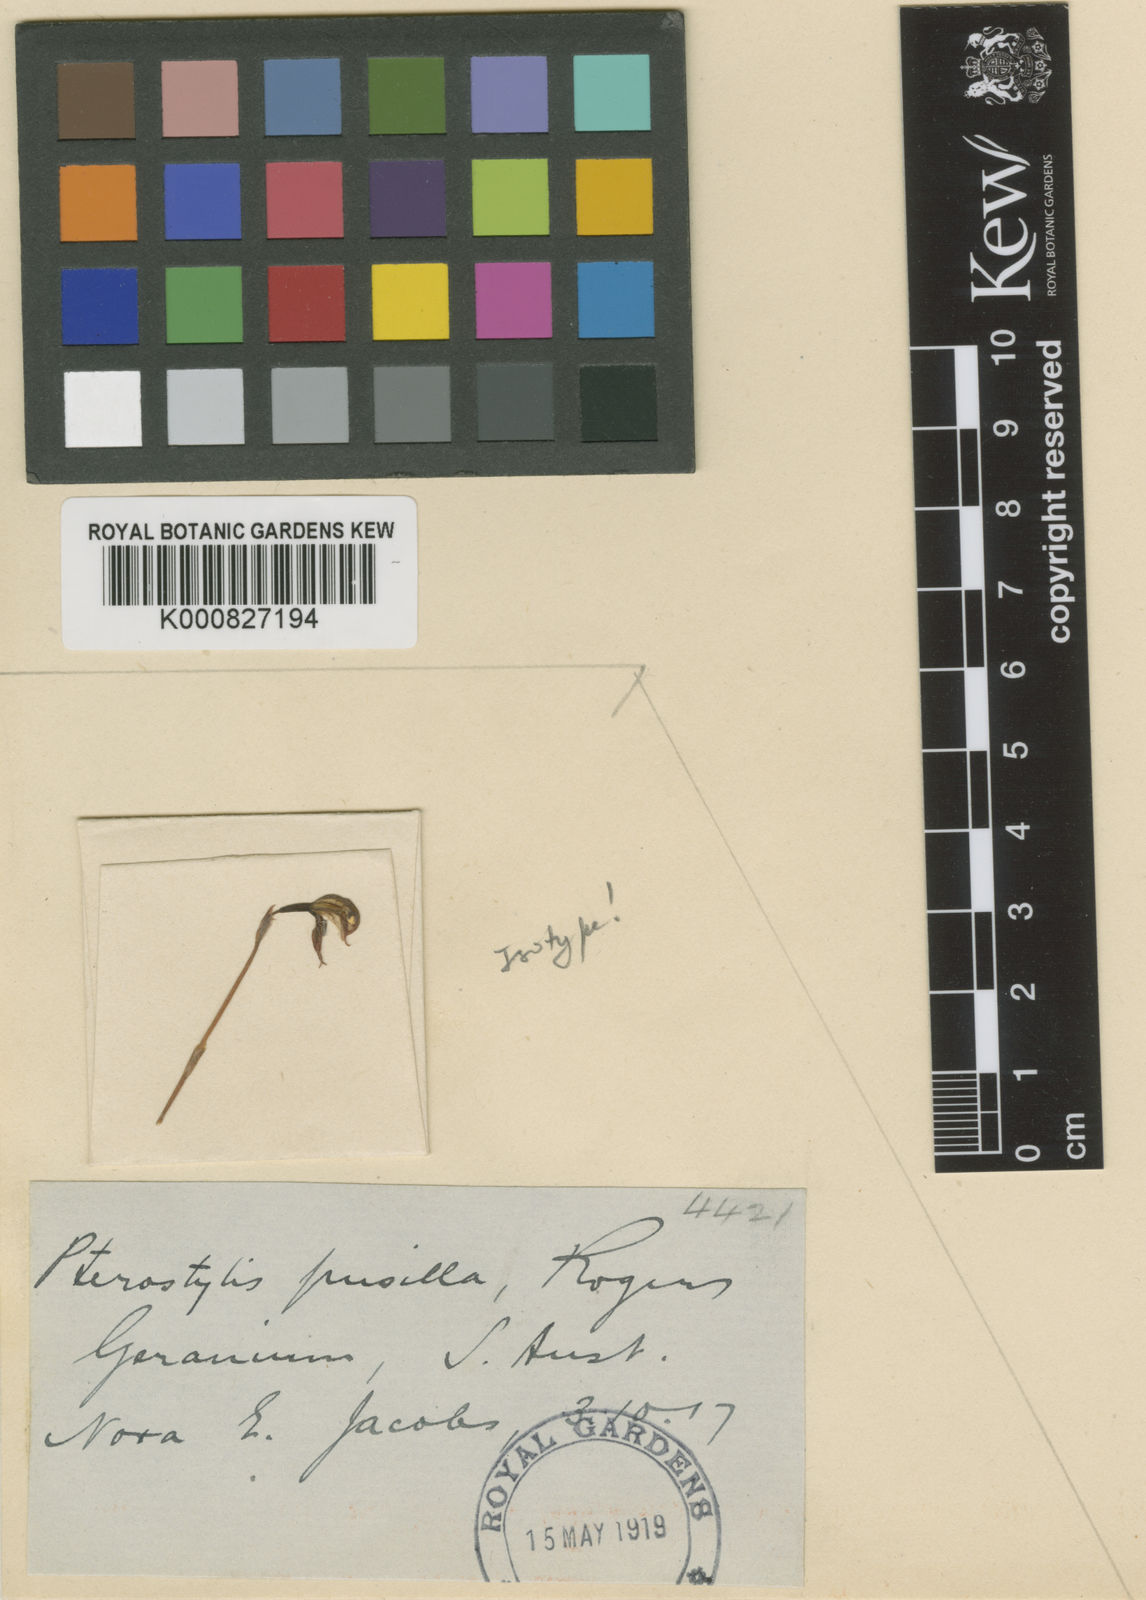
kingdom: Plantae
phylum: Tracheophyta
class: Liliopsida
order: Asparagales
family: Orchidaceae
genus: Pterostylis
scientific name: Pterostylis pusilla
